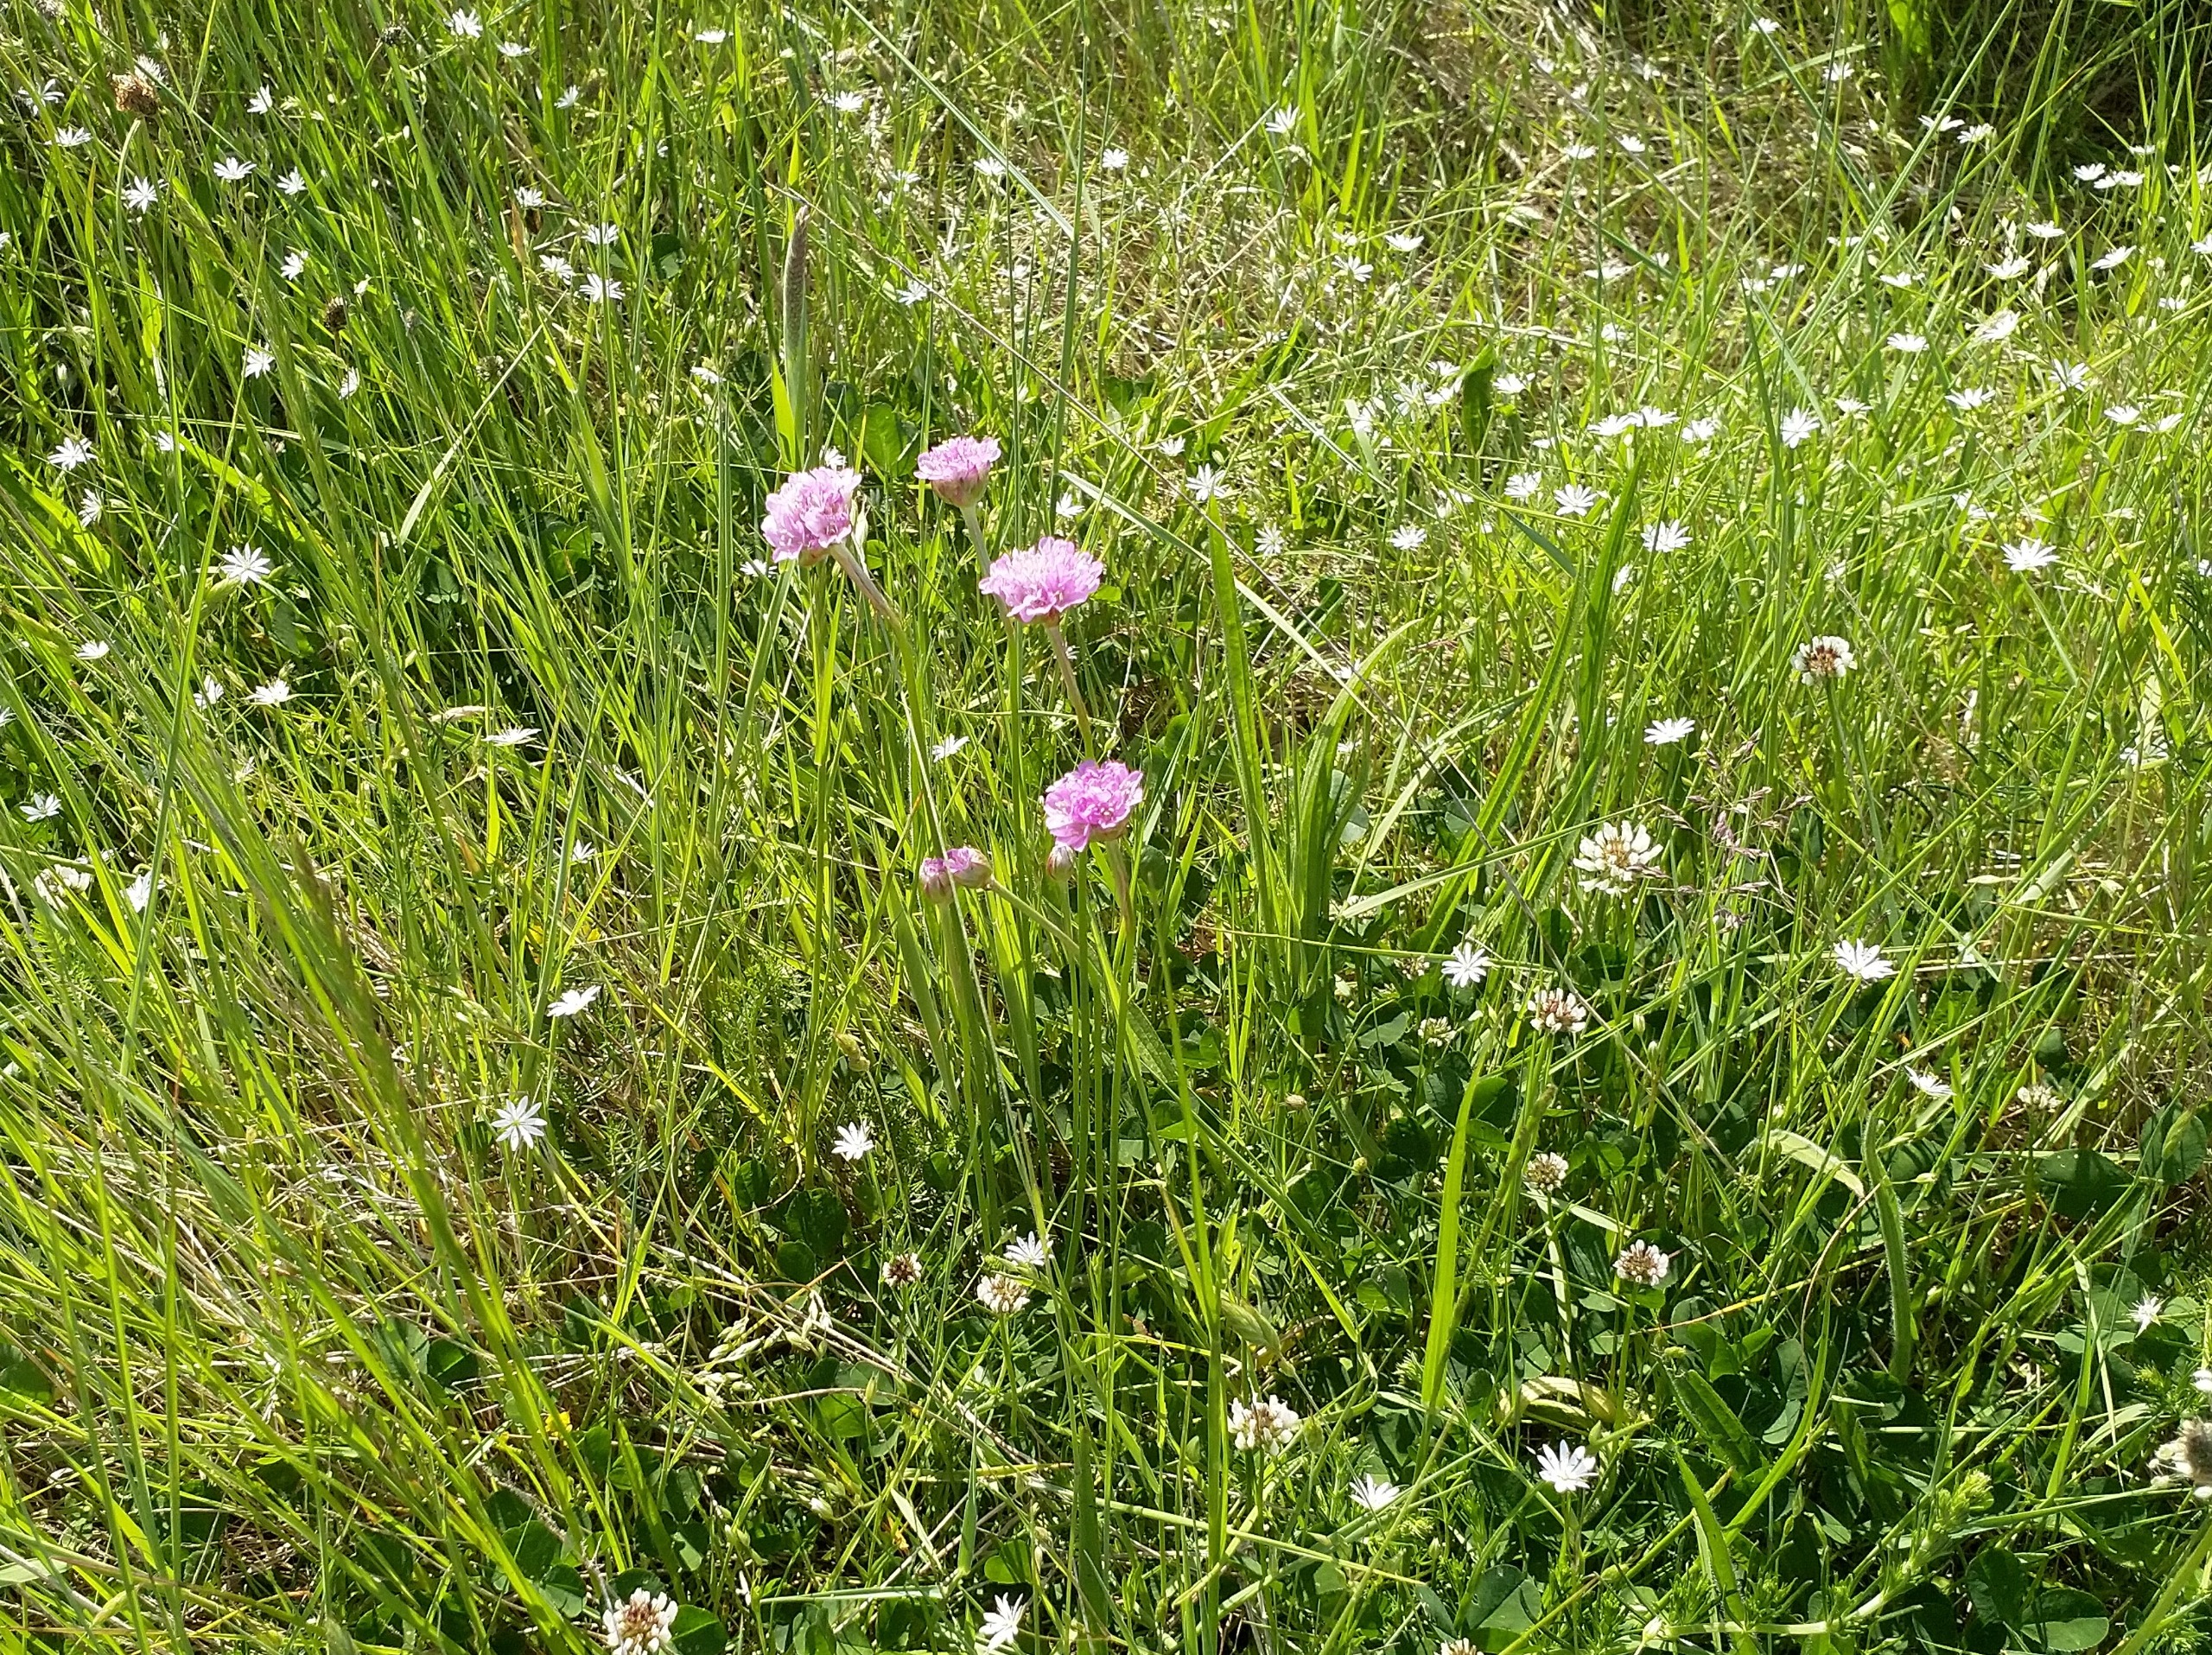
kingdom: Plantae
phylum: Tracheophyta
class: Magnoliopsida
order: Caryophyllales
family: Plumbaginaceae
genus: Armeria
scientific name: Armeria maritima
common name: Engelskgræs
